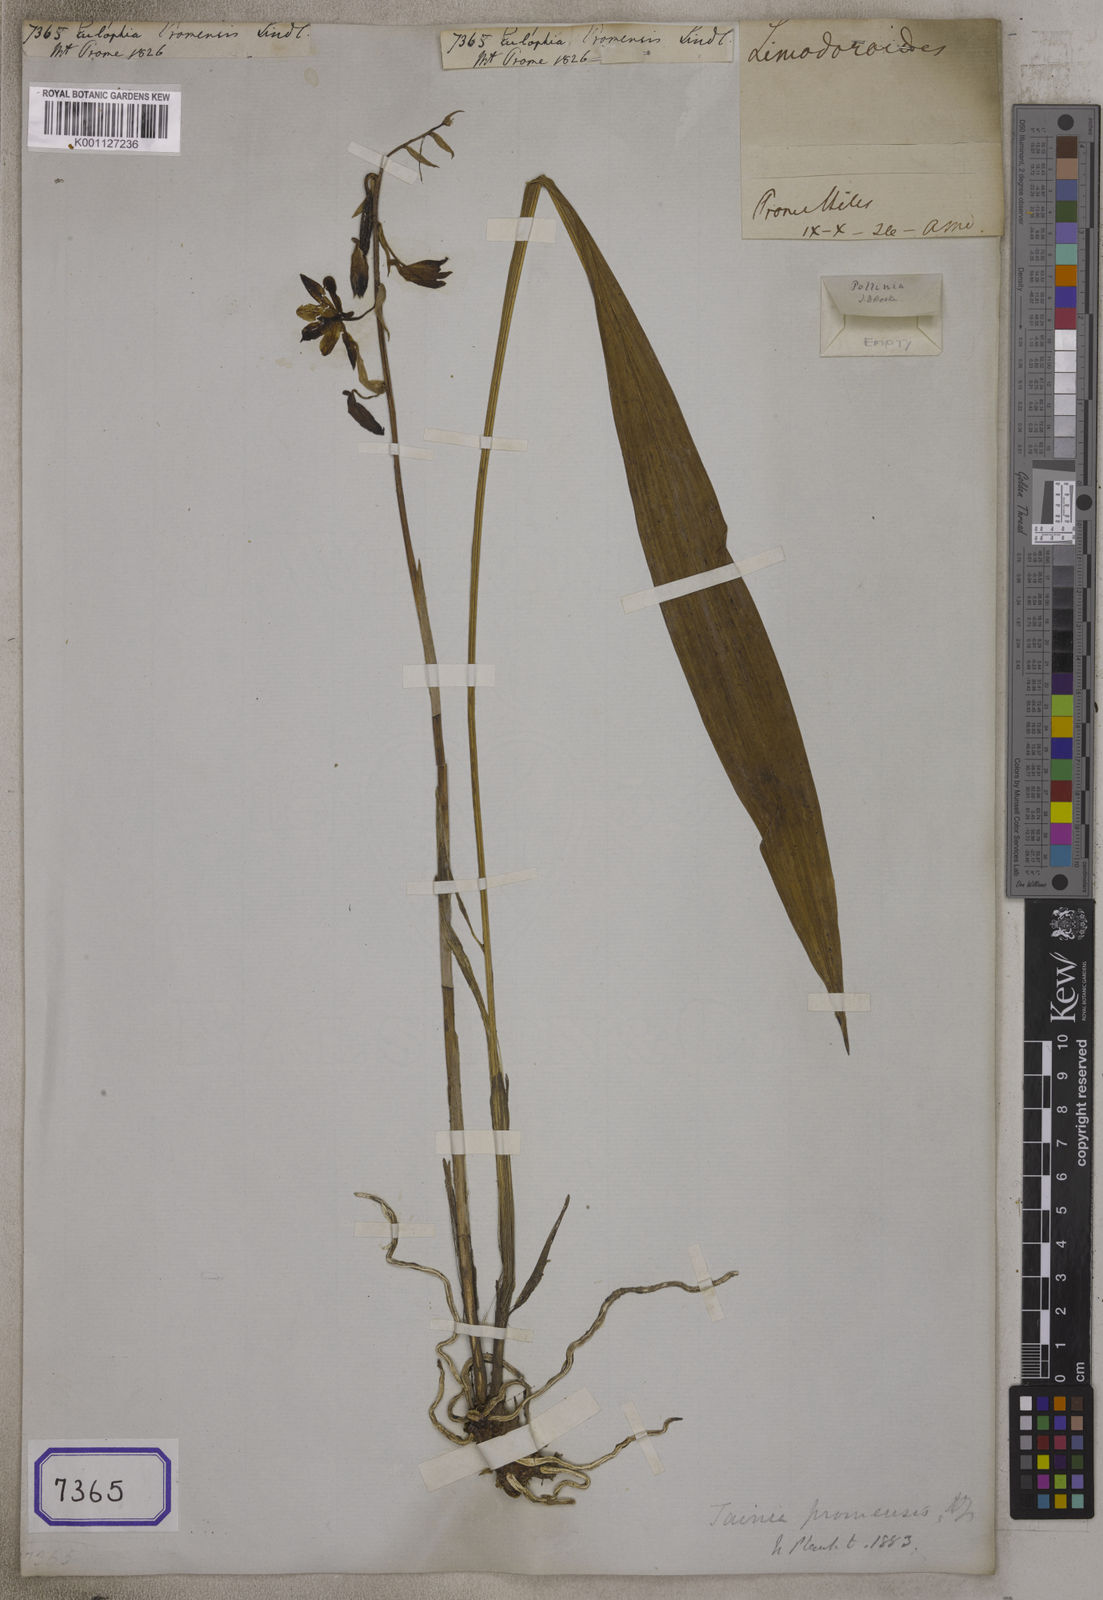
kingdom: Plantae
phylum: Tracheophyta
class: Liliopsida
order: Asparagales
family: Orchidaceae
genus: Eulophia
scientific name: Eulophia promensis
